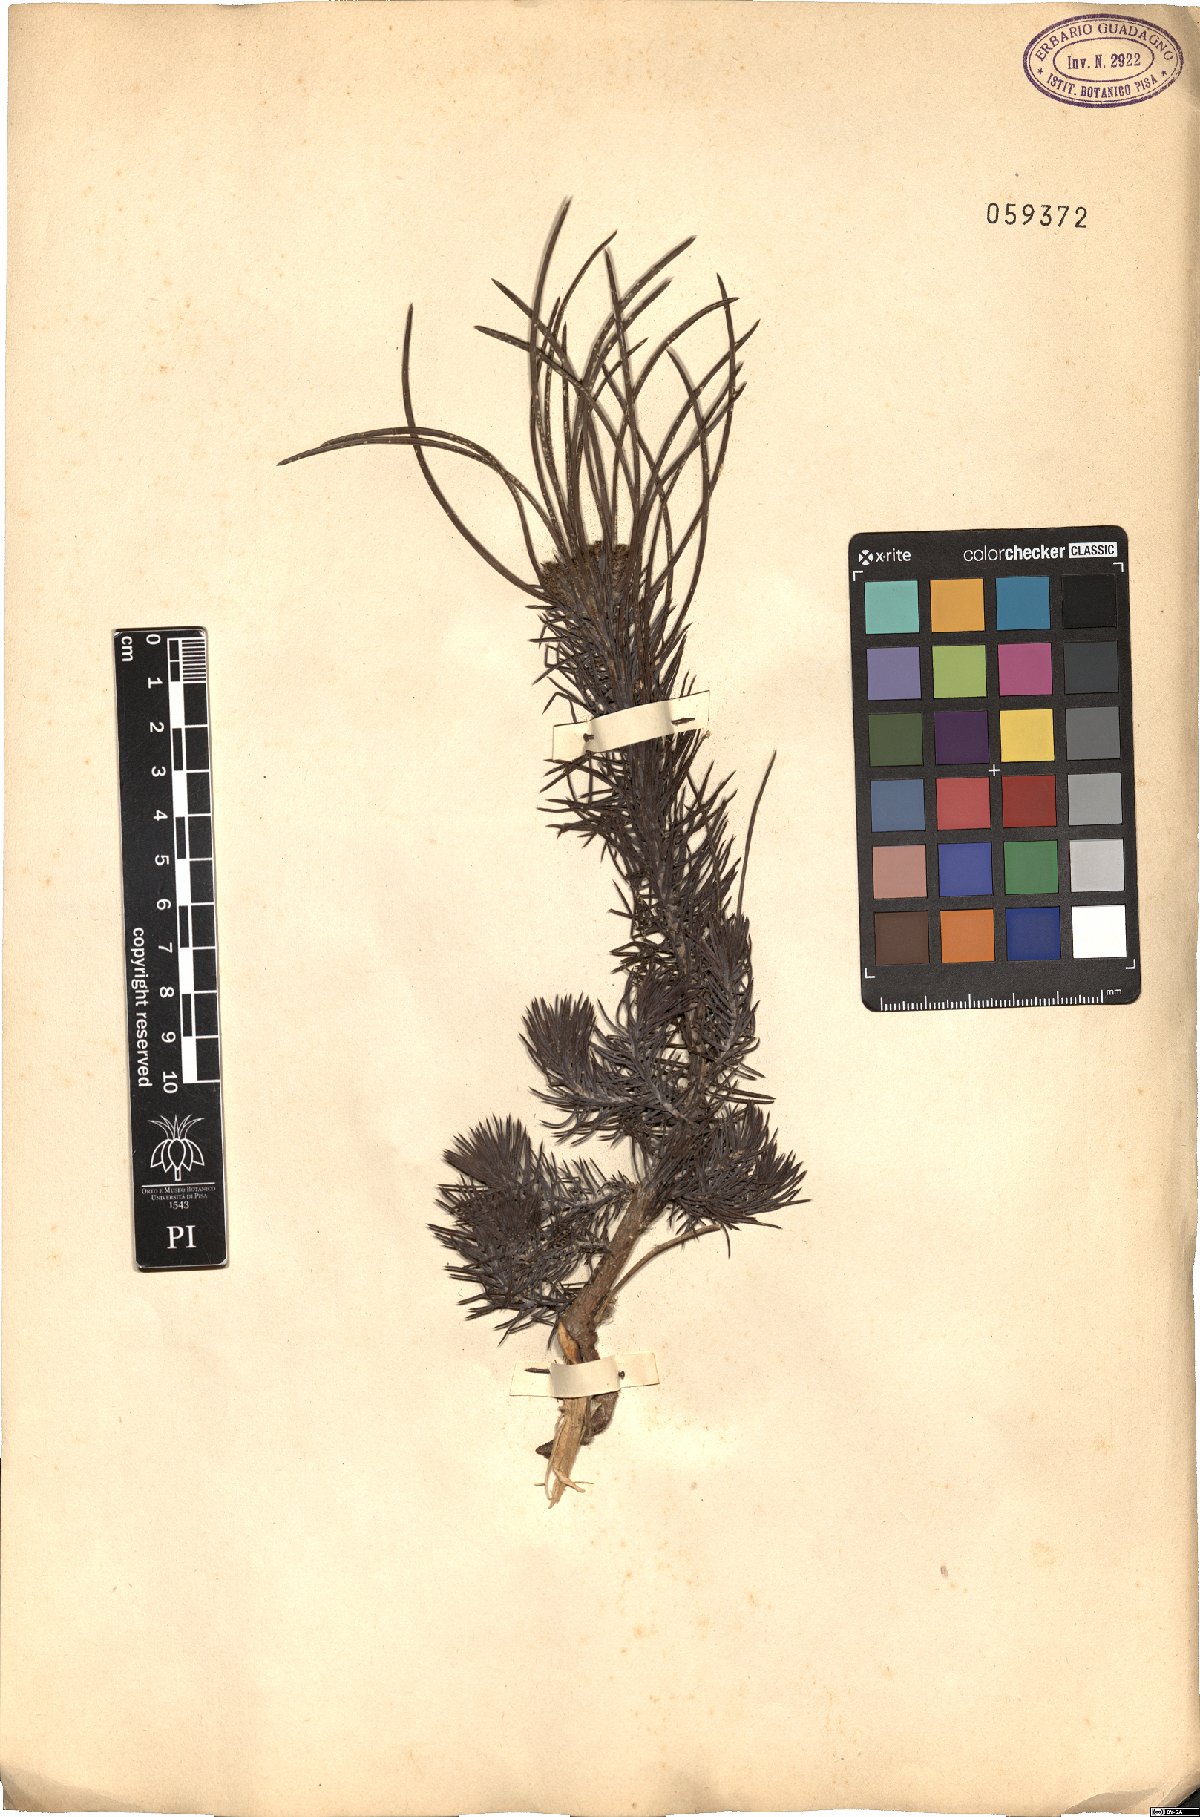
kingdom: Plantae
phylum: Tracheophyta
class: Pinopsida
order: Pinales
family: Cupressaceae
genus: Juniperus
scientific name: Juniperus communis
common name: Common juniper
